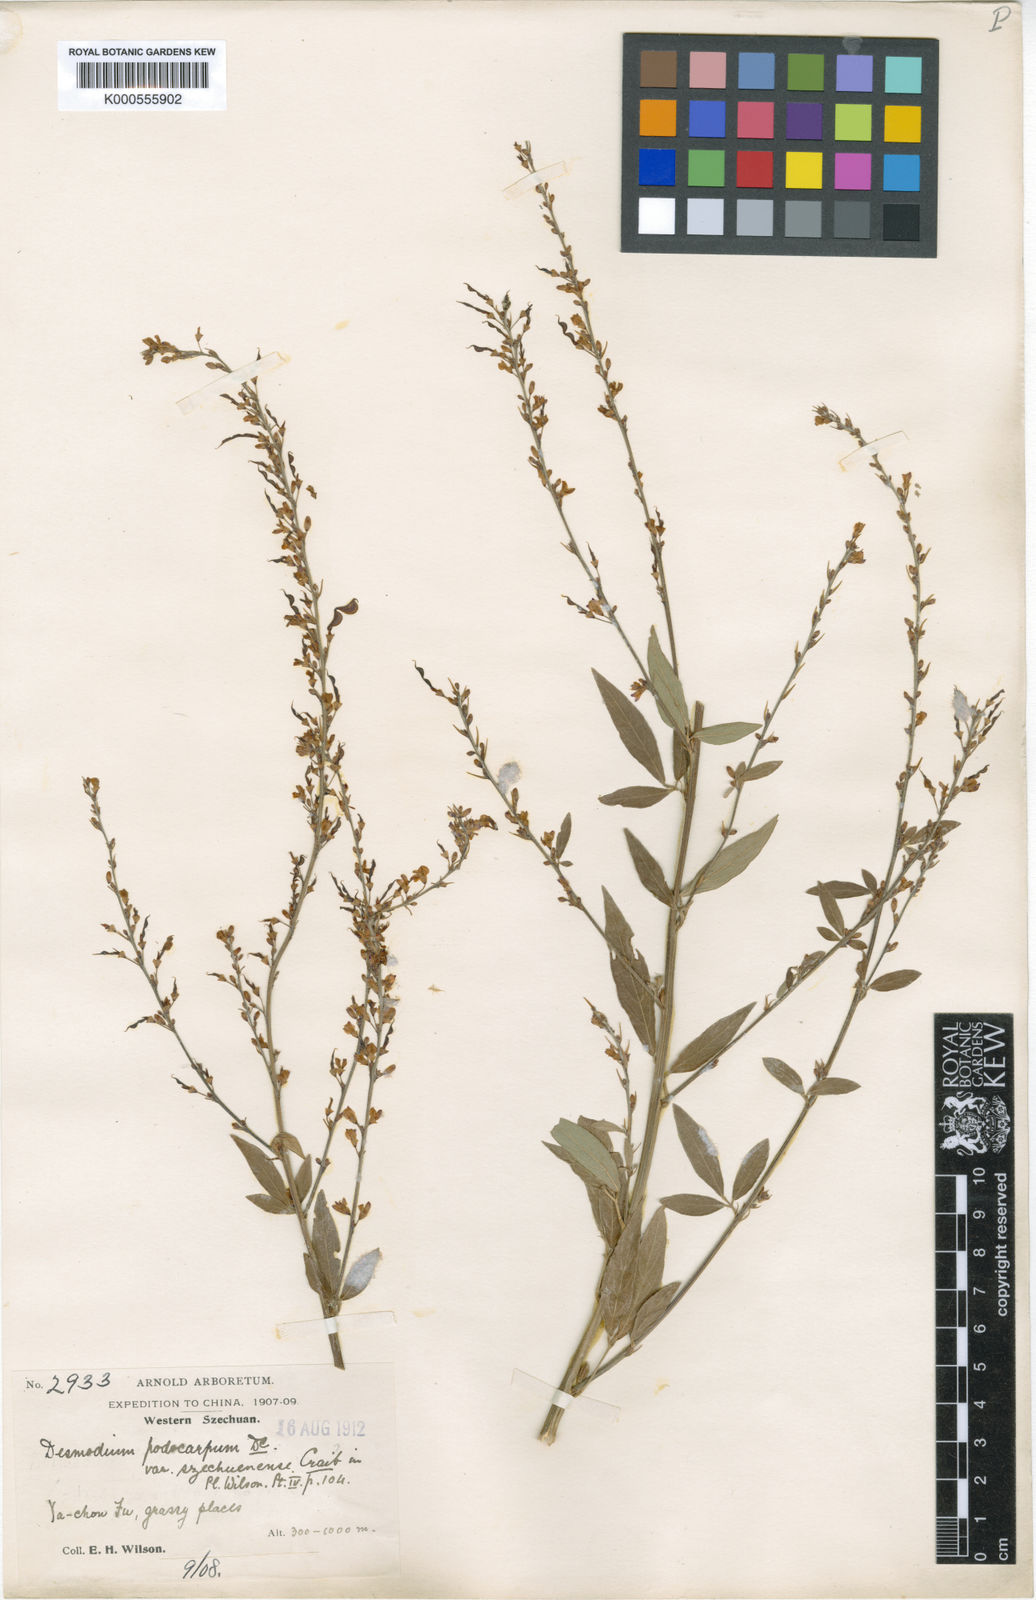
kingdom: Plantae
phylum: Tracheophyta
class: Magnoliopsida
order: Fabales
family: Fabaceae
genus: Hylodesmum
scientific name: Hylodesmum podocarpum
